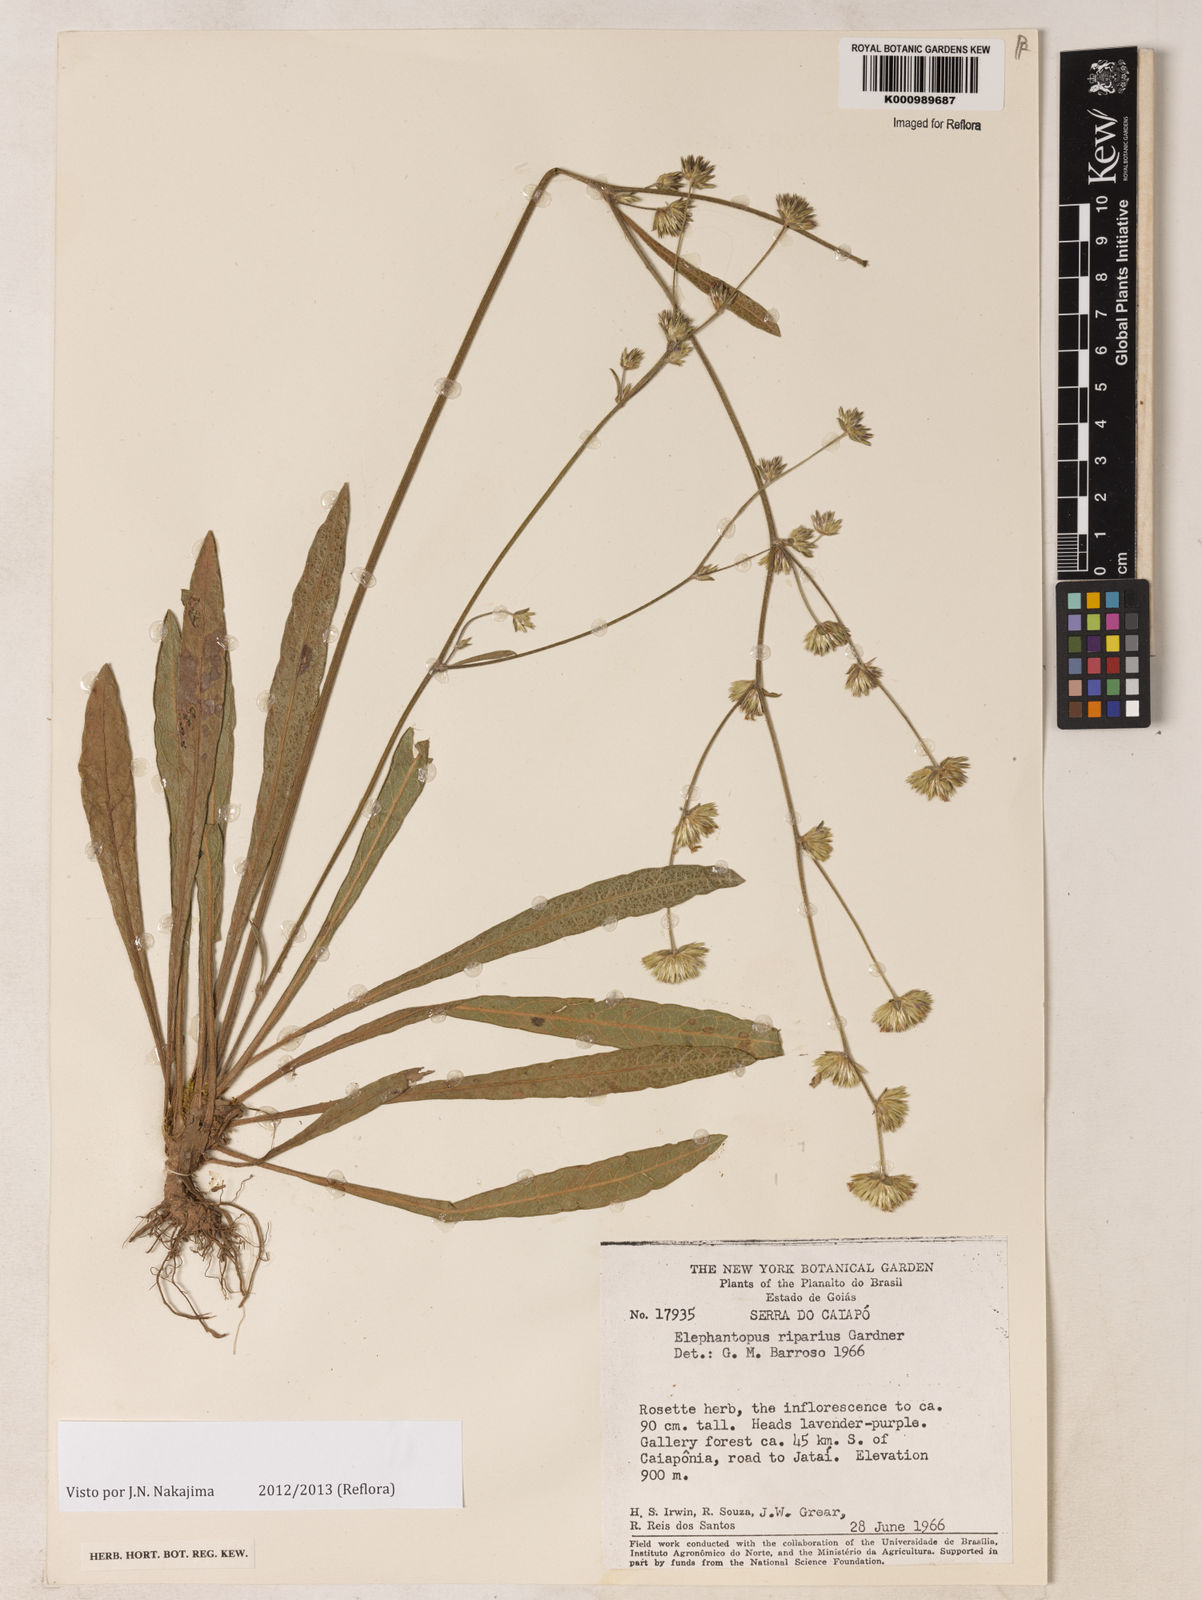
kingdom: Plantae
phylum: Tracheophyta
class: Magnoliopsida
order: Asterales
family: Asteraceae
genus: Elephantopus
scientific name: Elephantopus riparius
